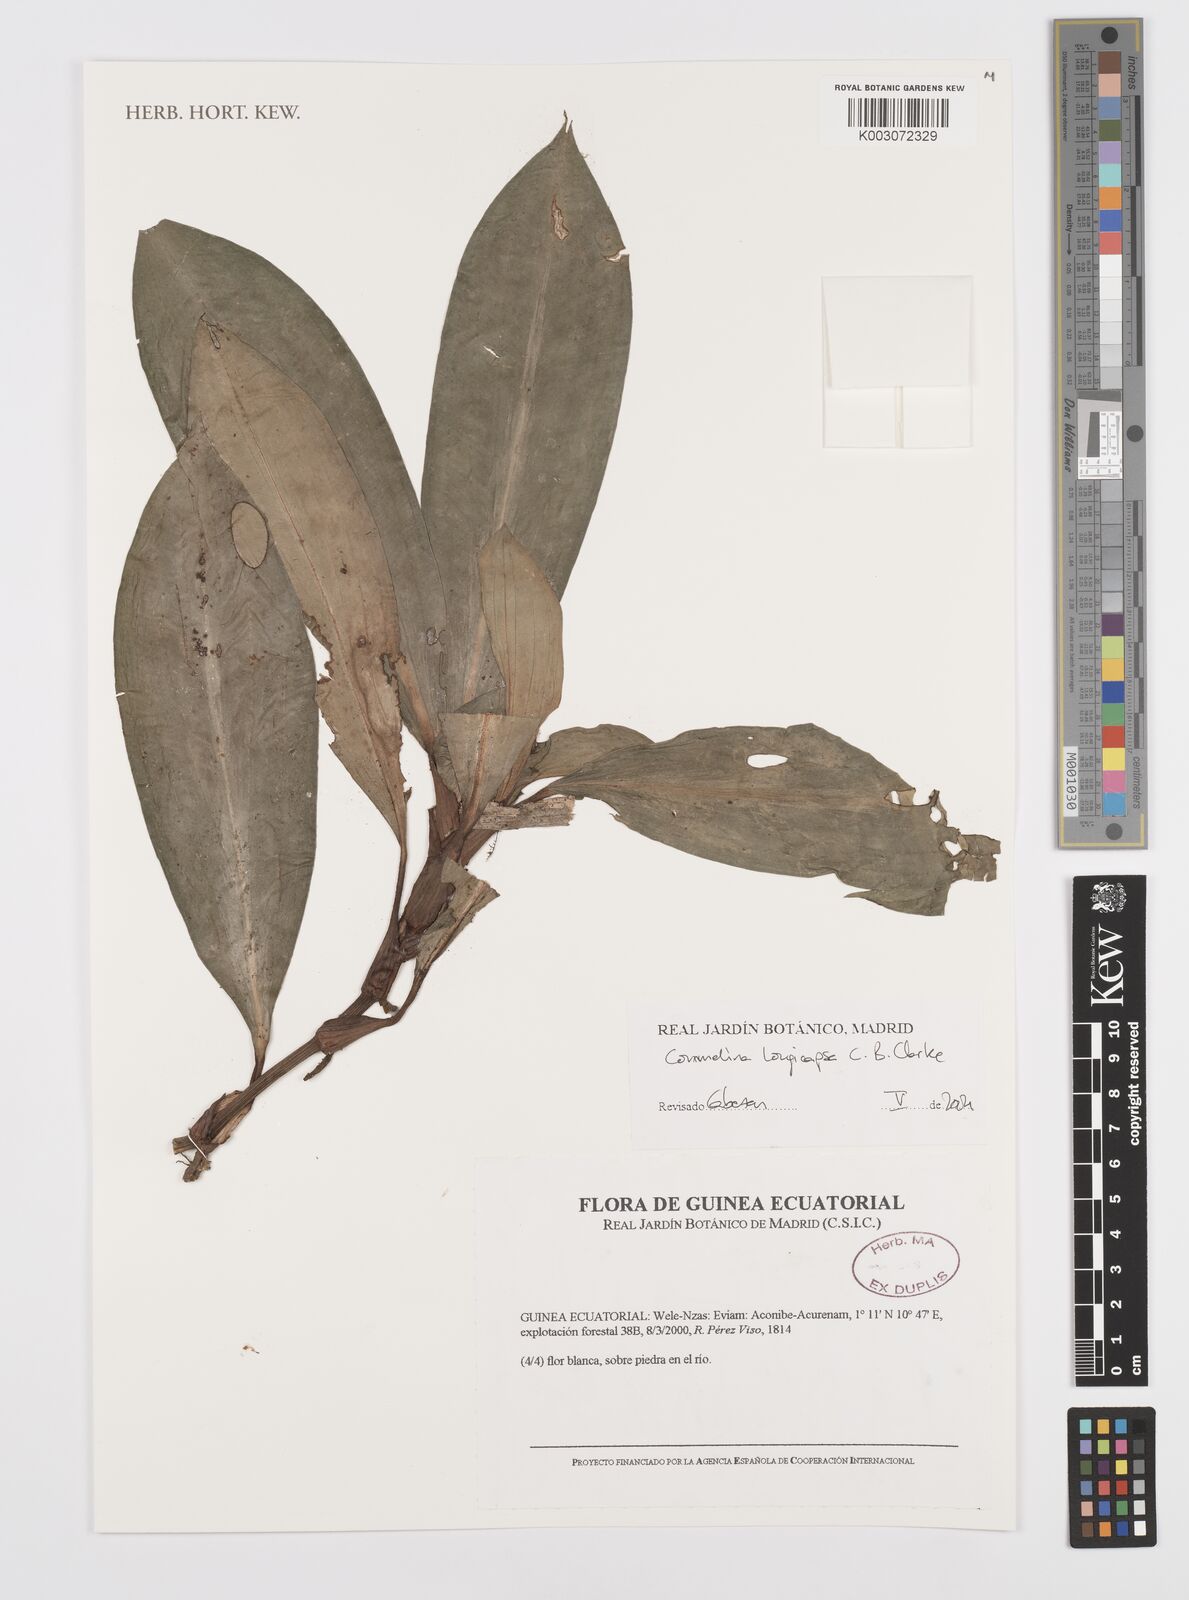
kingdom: Plantae
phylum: Tracheophyta
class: Liliopsida
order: Commelinales
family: Commelinaceae
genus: Commelina
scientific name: Commelina longicapsa
